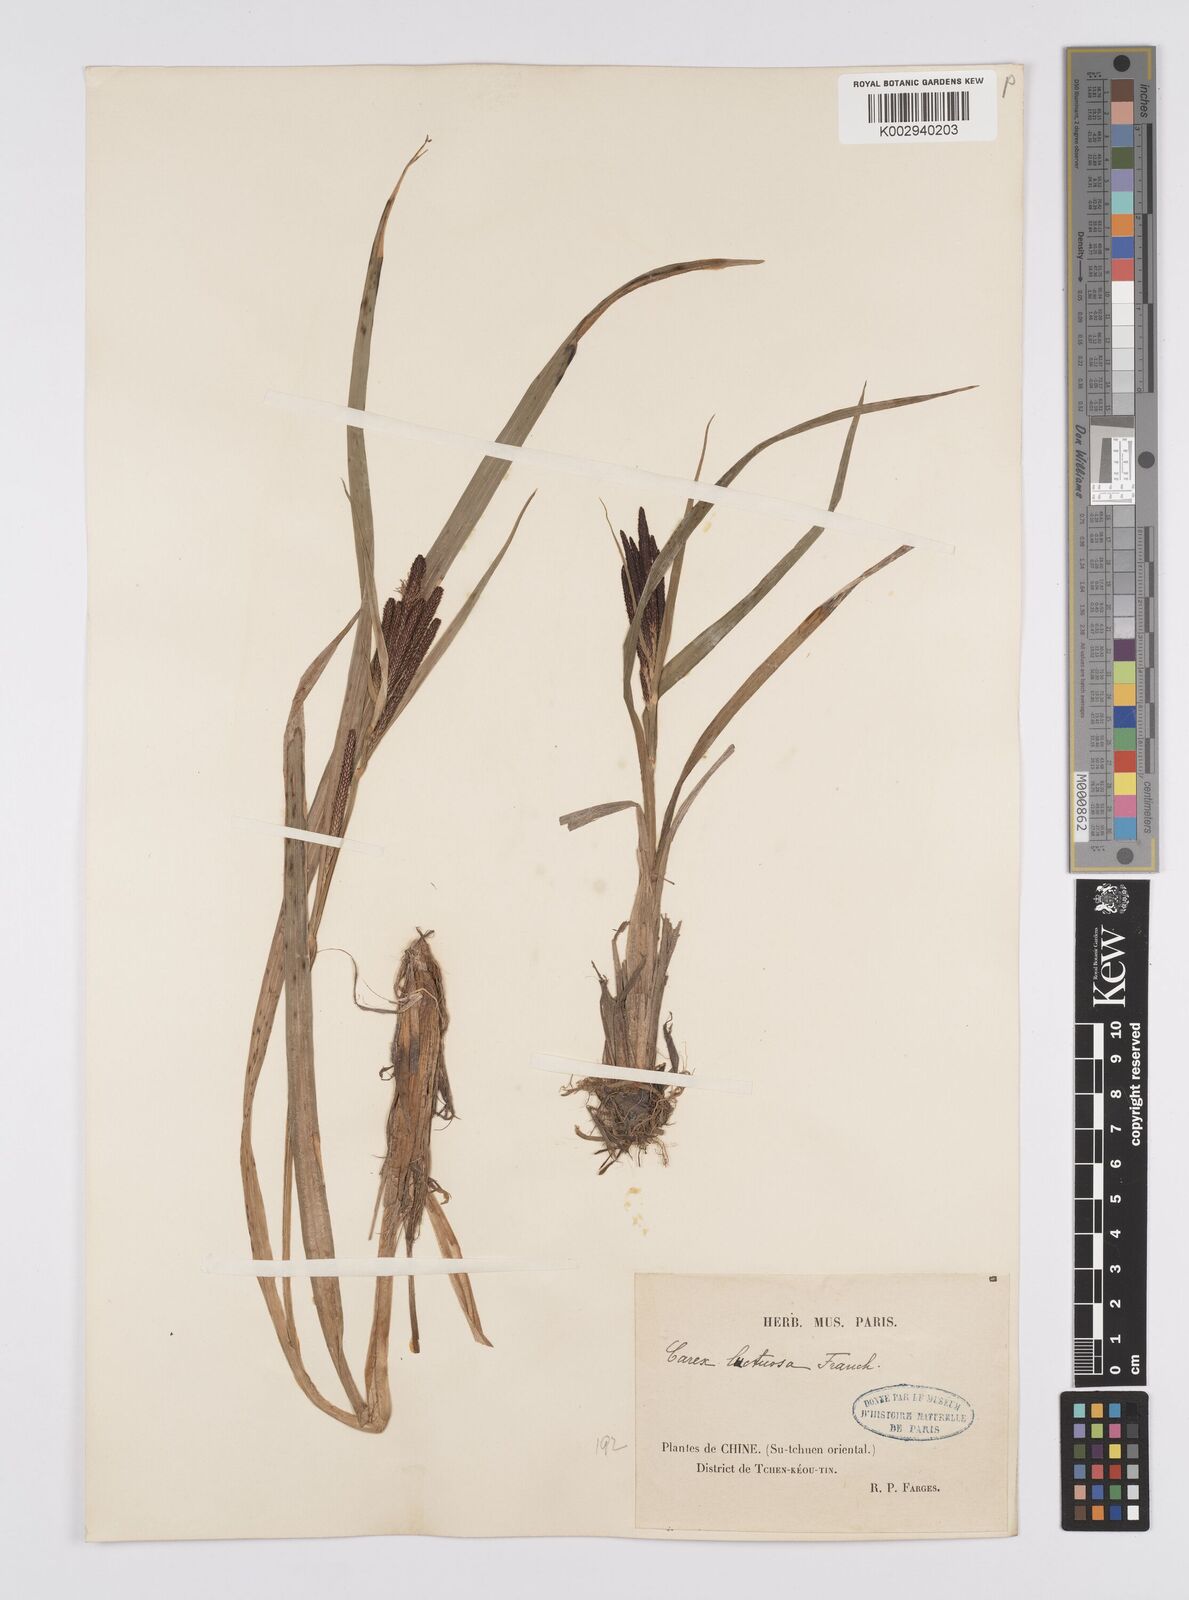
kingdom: Plantae
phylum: Tracheophyta
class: Liliopsida
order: Poales
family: Cyperaceae
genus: Carex
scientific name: Carex fucata
